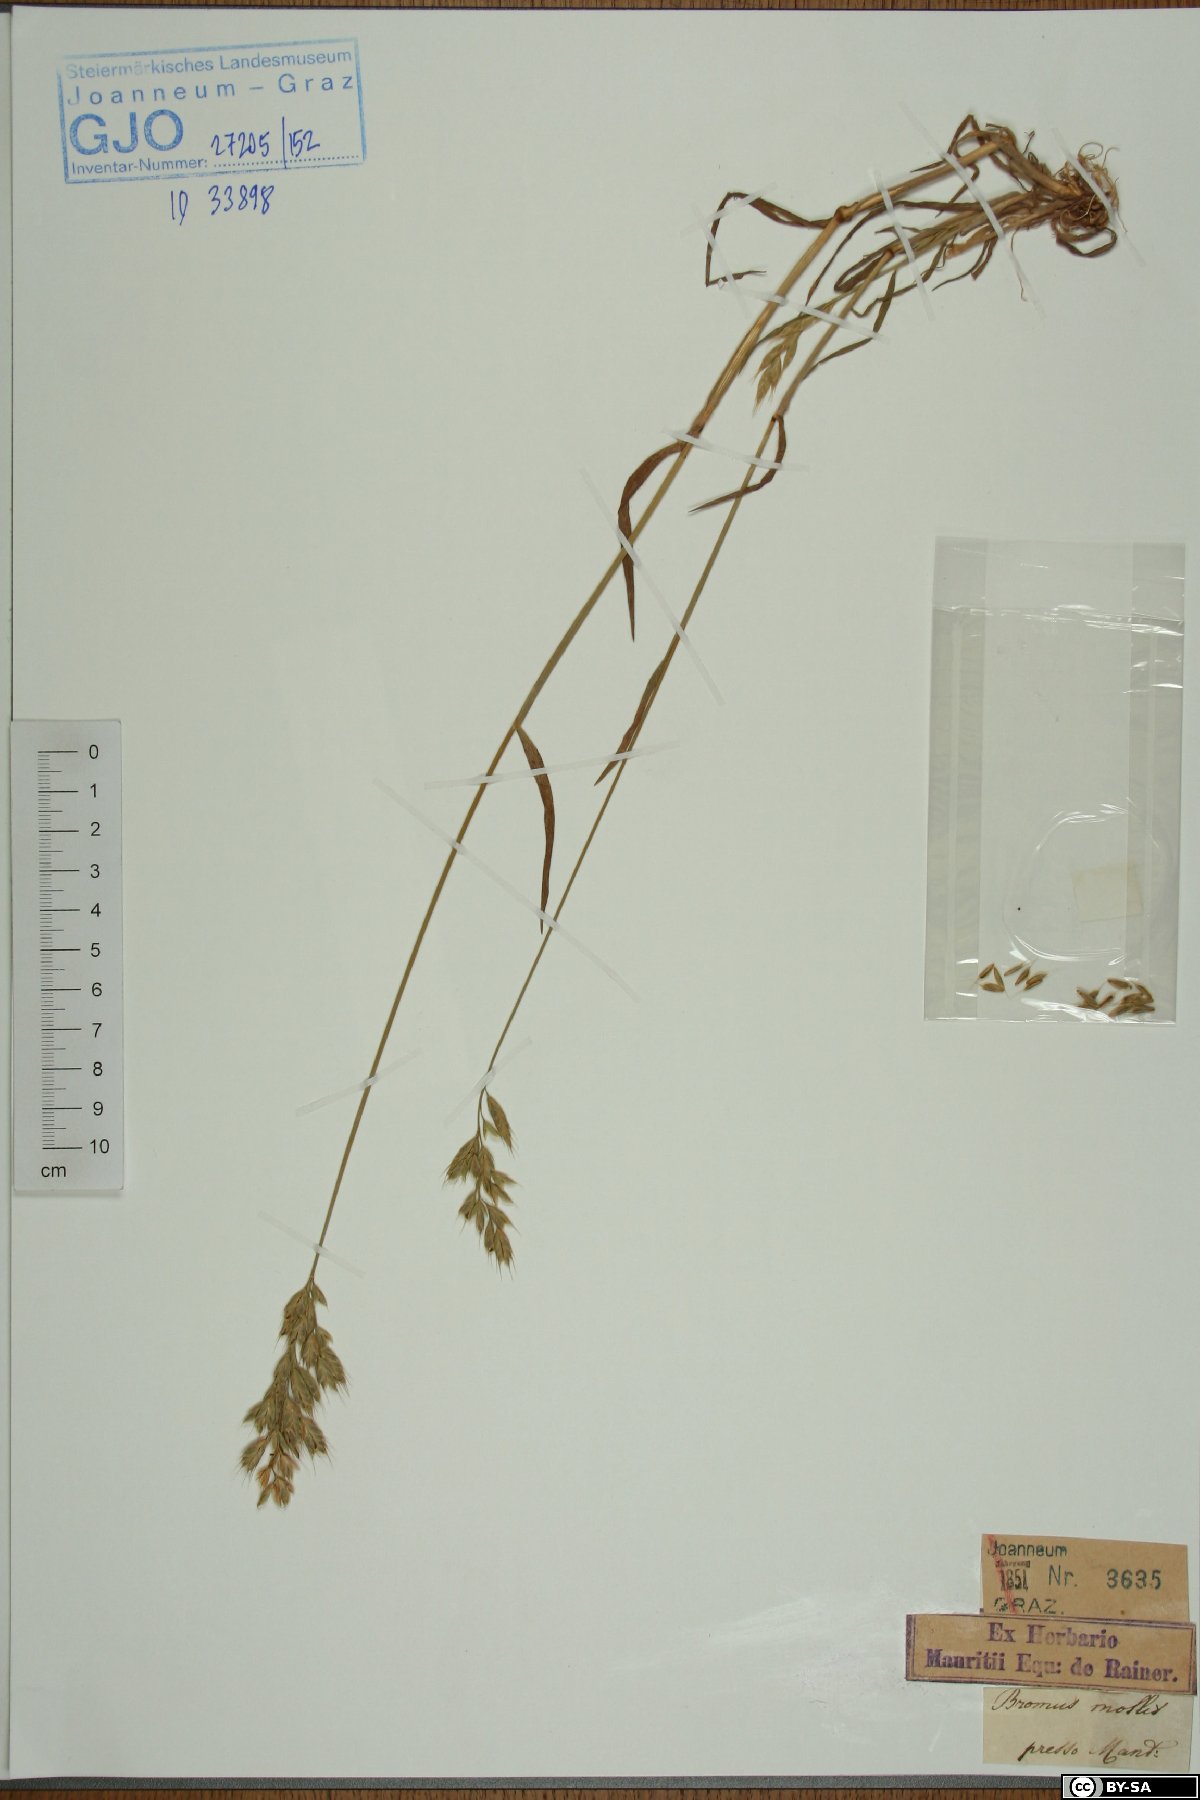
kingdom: Plantae
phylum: Tracheophyta
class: Liliopsida
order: Poales
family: Poaceae
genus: Bromus
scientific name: Bromus hordeaceus
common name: Soft brome
